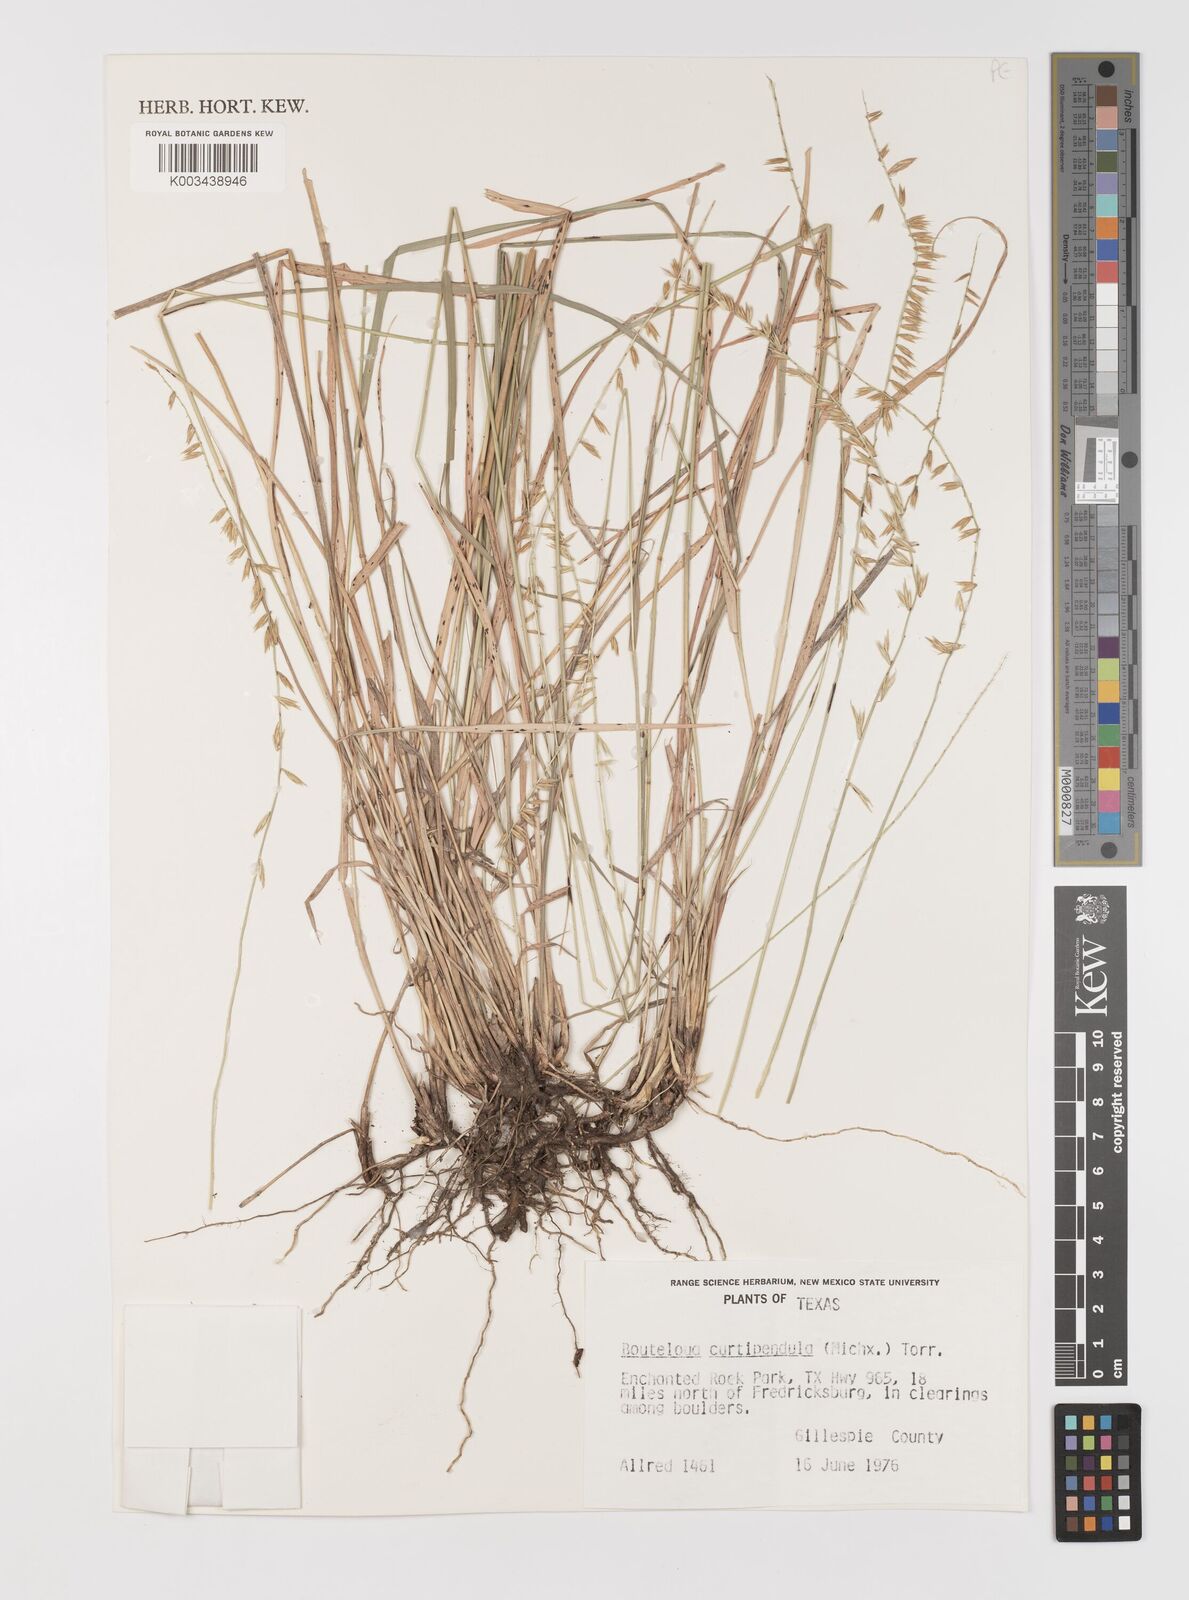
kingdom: Plantae
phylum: Tracheophyta
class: Liliopsida
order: Poales
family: Poaceae
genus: Bouteloua
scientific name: Bouteloua curtipendula
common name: Side-oats grama
